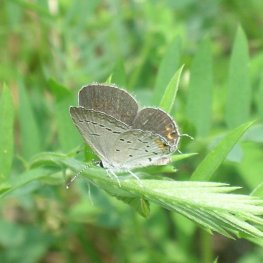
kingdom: Animalia
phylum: Arthropoda
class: Insecta
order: Lepidoptera
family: Lycaenidae
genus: Elkalyce
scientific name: Elkalyce comyntas
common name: Eastern Tailed-Blue
